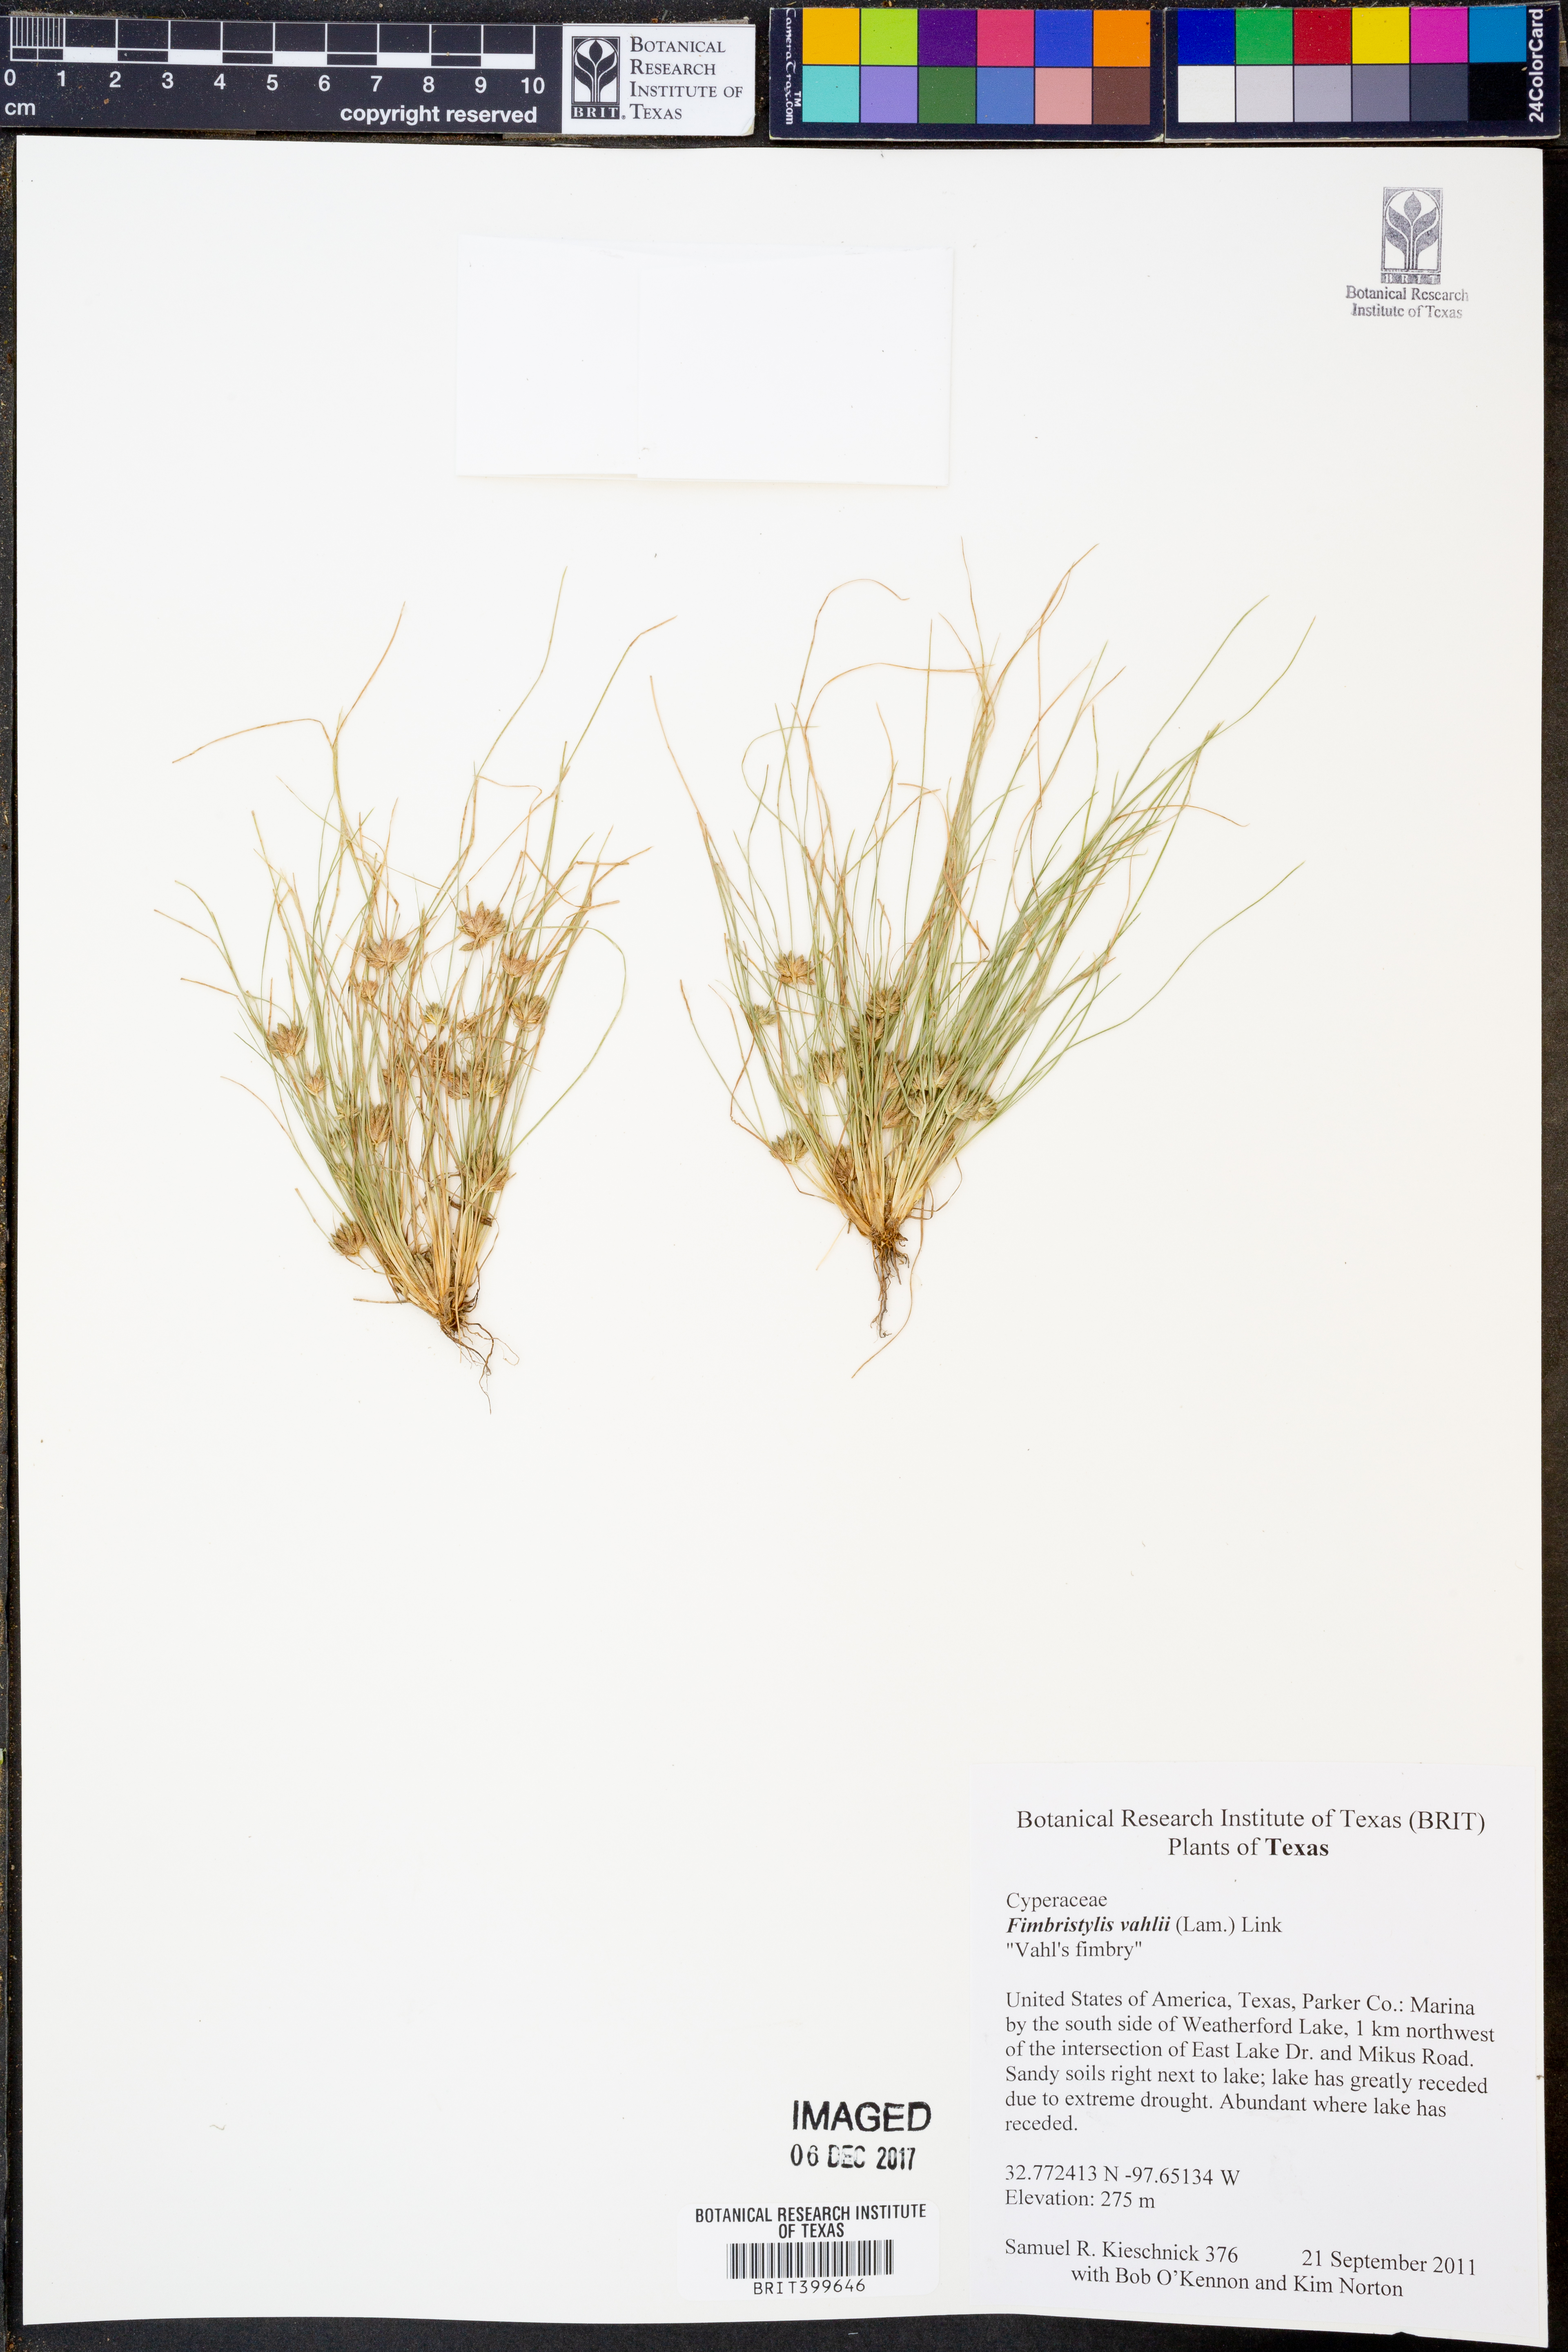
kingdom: Plantae
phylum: Tracheophyta
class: Liliopsida
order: Poales
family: Cyperaceae
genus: Fimbristylis
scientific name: Fimbristylis vahlii
